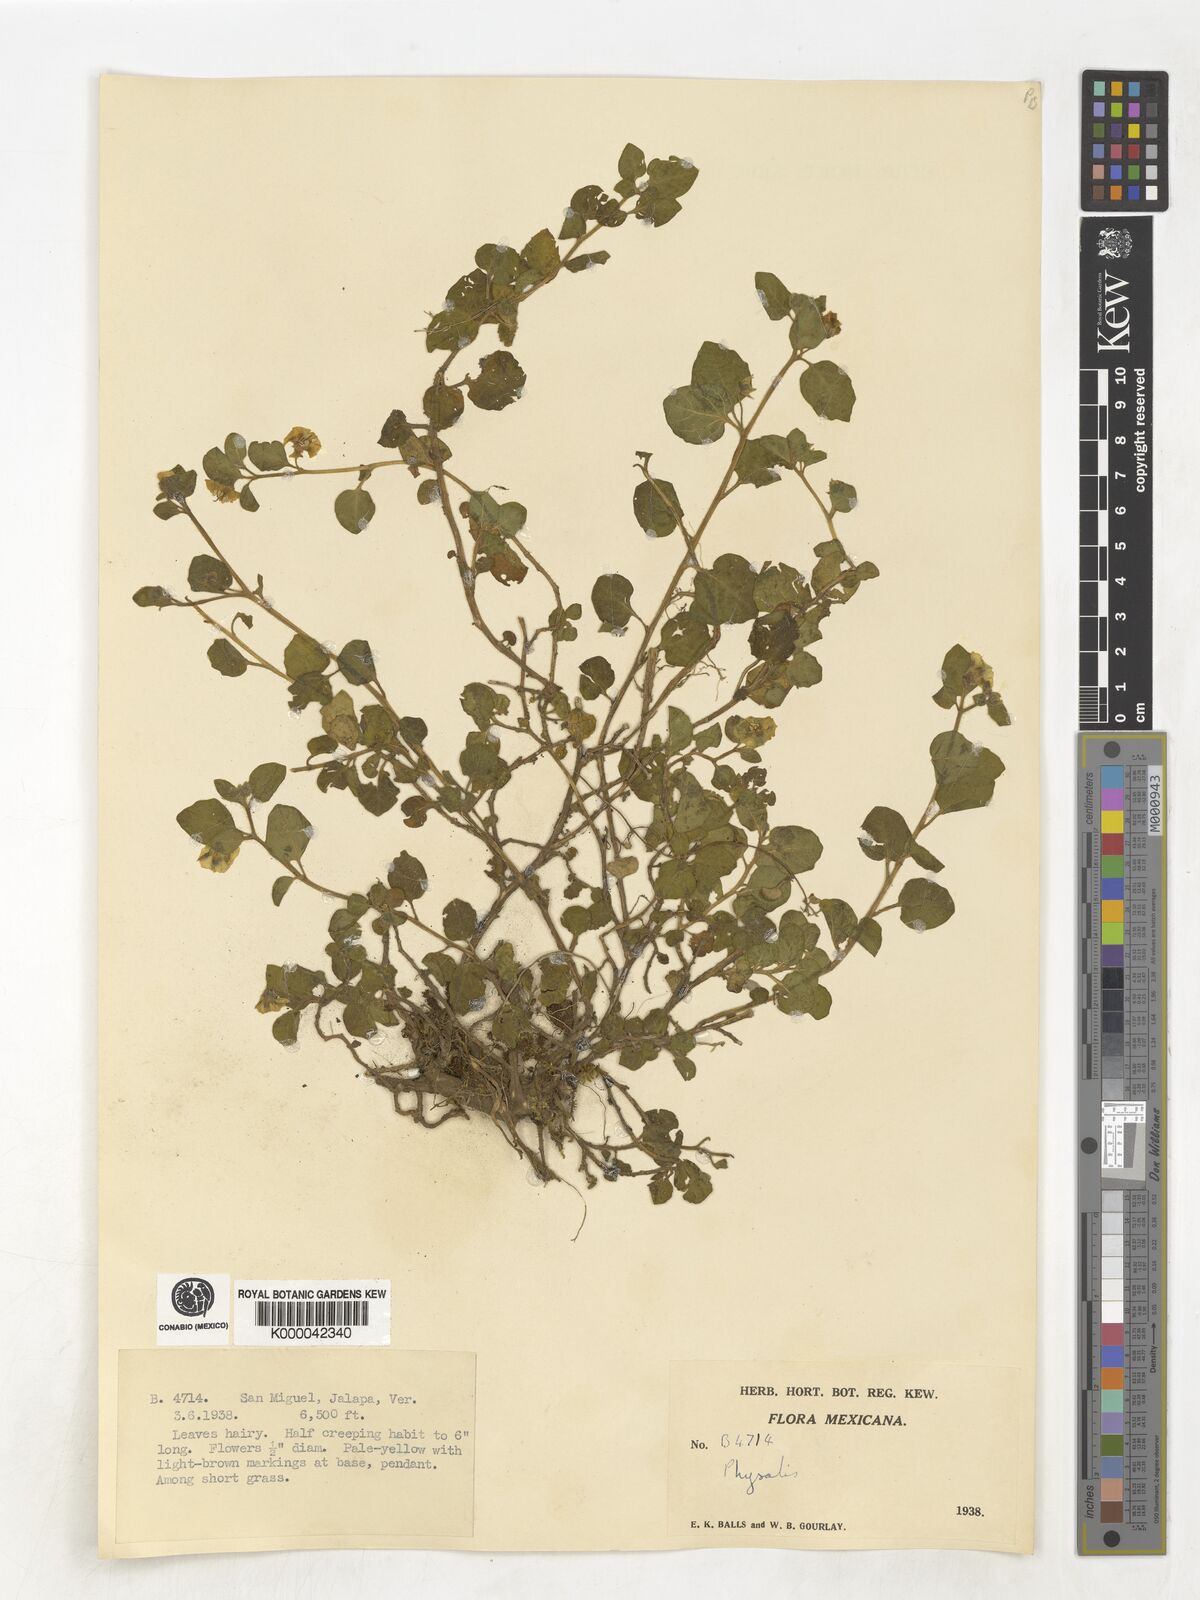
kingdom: Plantae
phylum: Tracheophyta
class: Magnoliopsida
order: Solanales
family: Solanaceae
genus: Physalis
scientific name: Physalis
